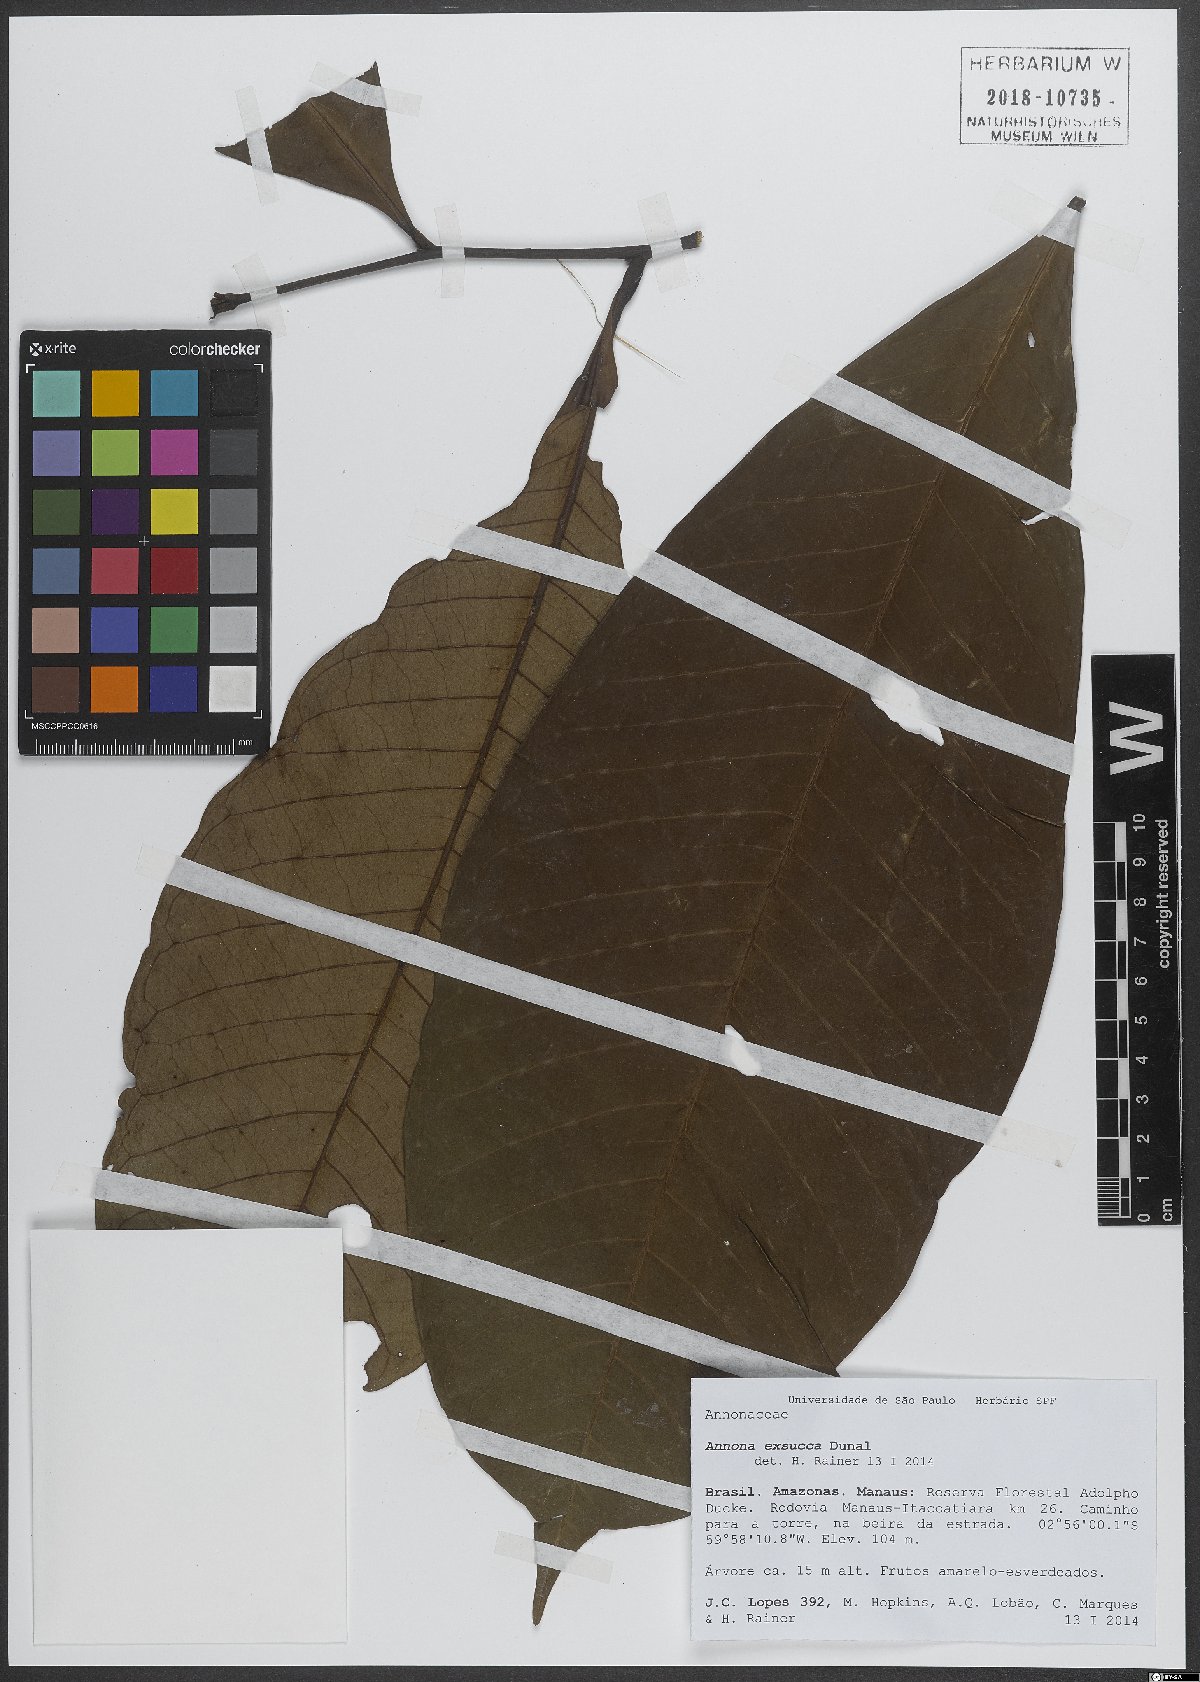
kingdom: Plantae
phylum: Tracheophyta
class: Magnoliopsida
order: Magnoliales
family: Annonaceae
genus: Annona
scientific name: Annona exsucca
